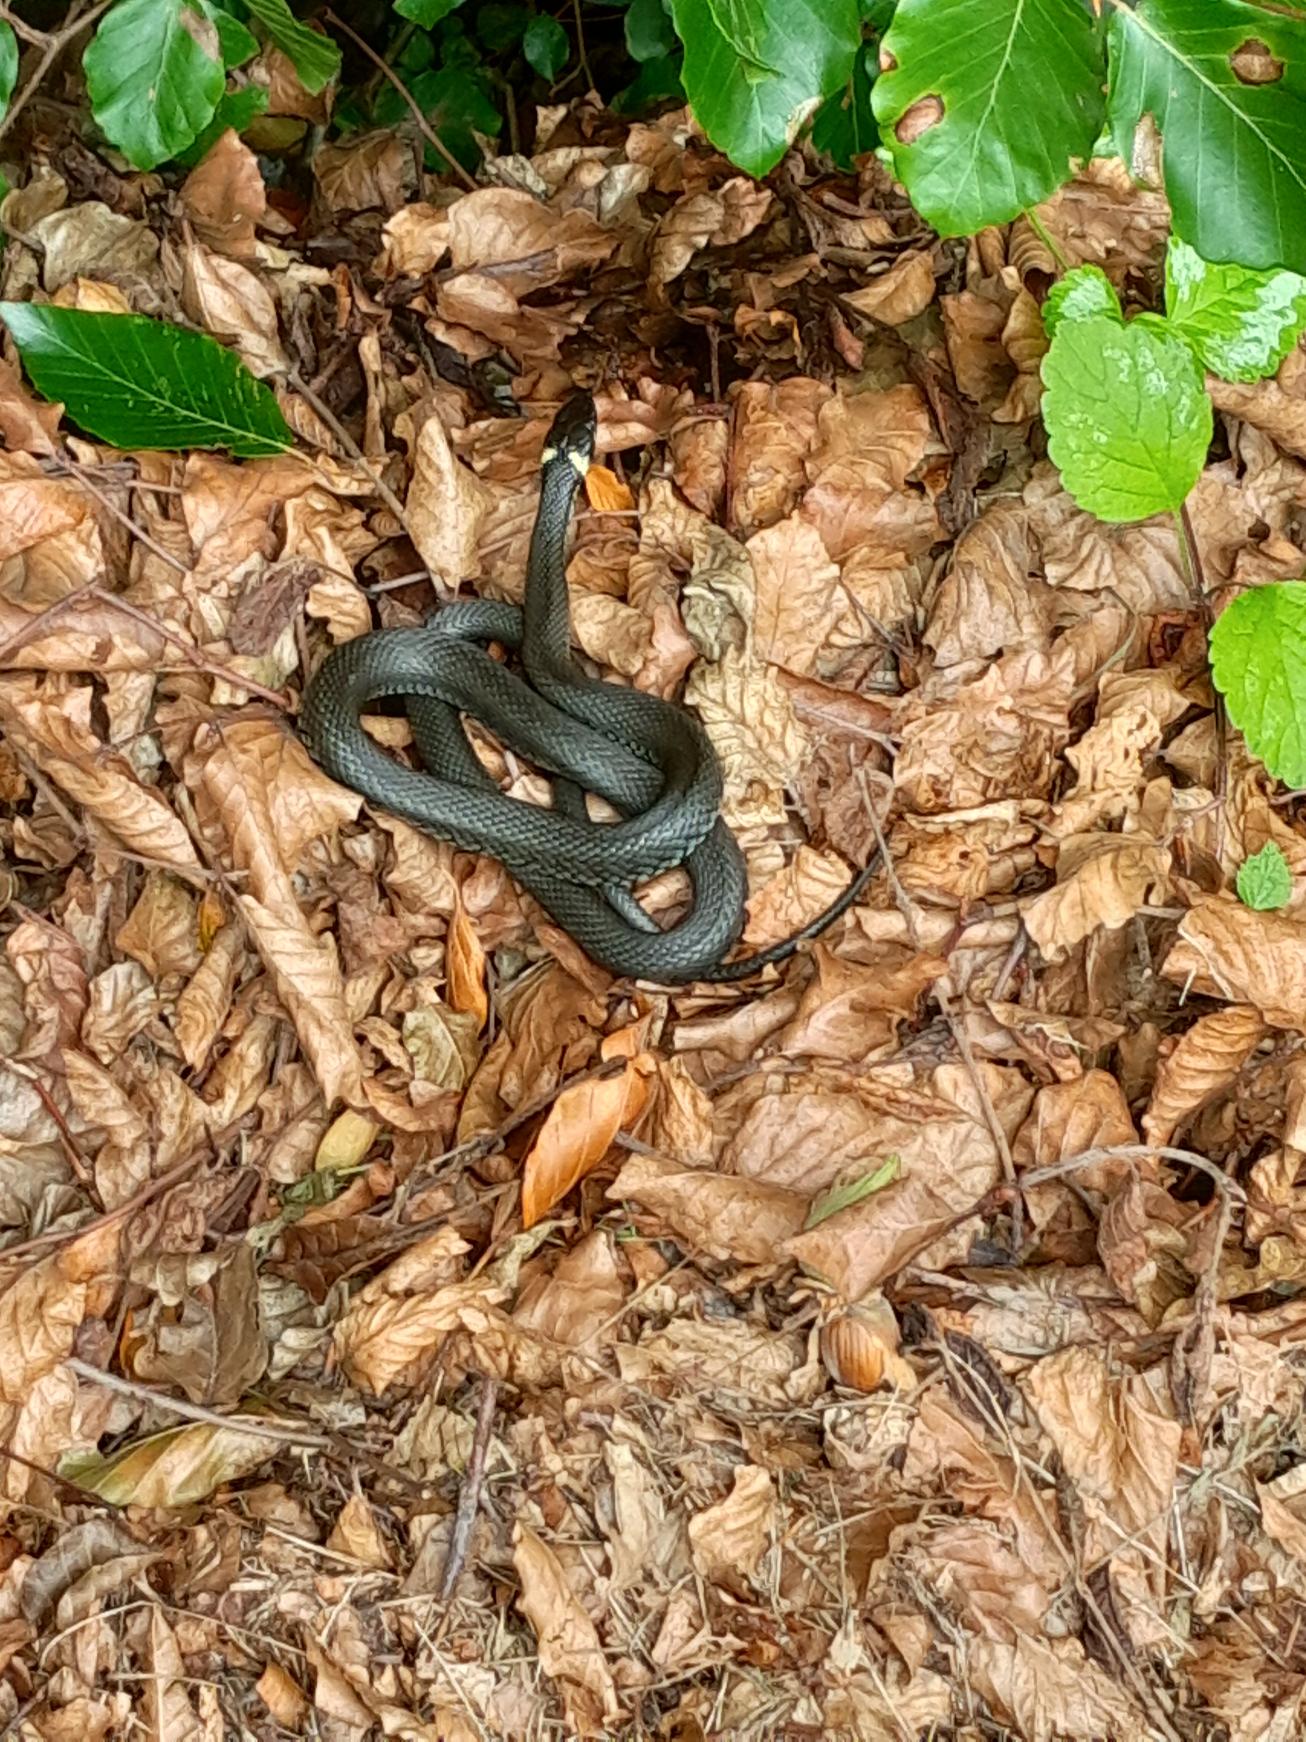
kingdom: Animalia
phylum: Chordata
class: Squamata
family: Colubridae
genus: Natrix
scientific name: Natrix natrix
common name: Snog
